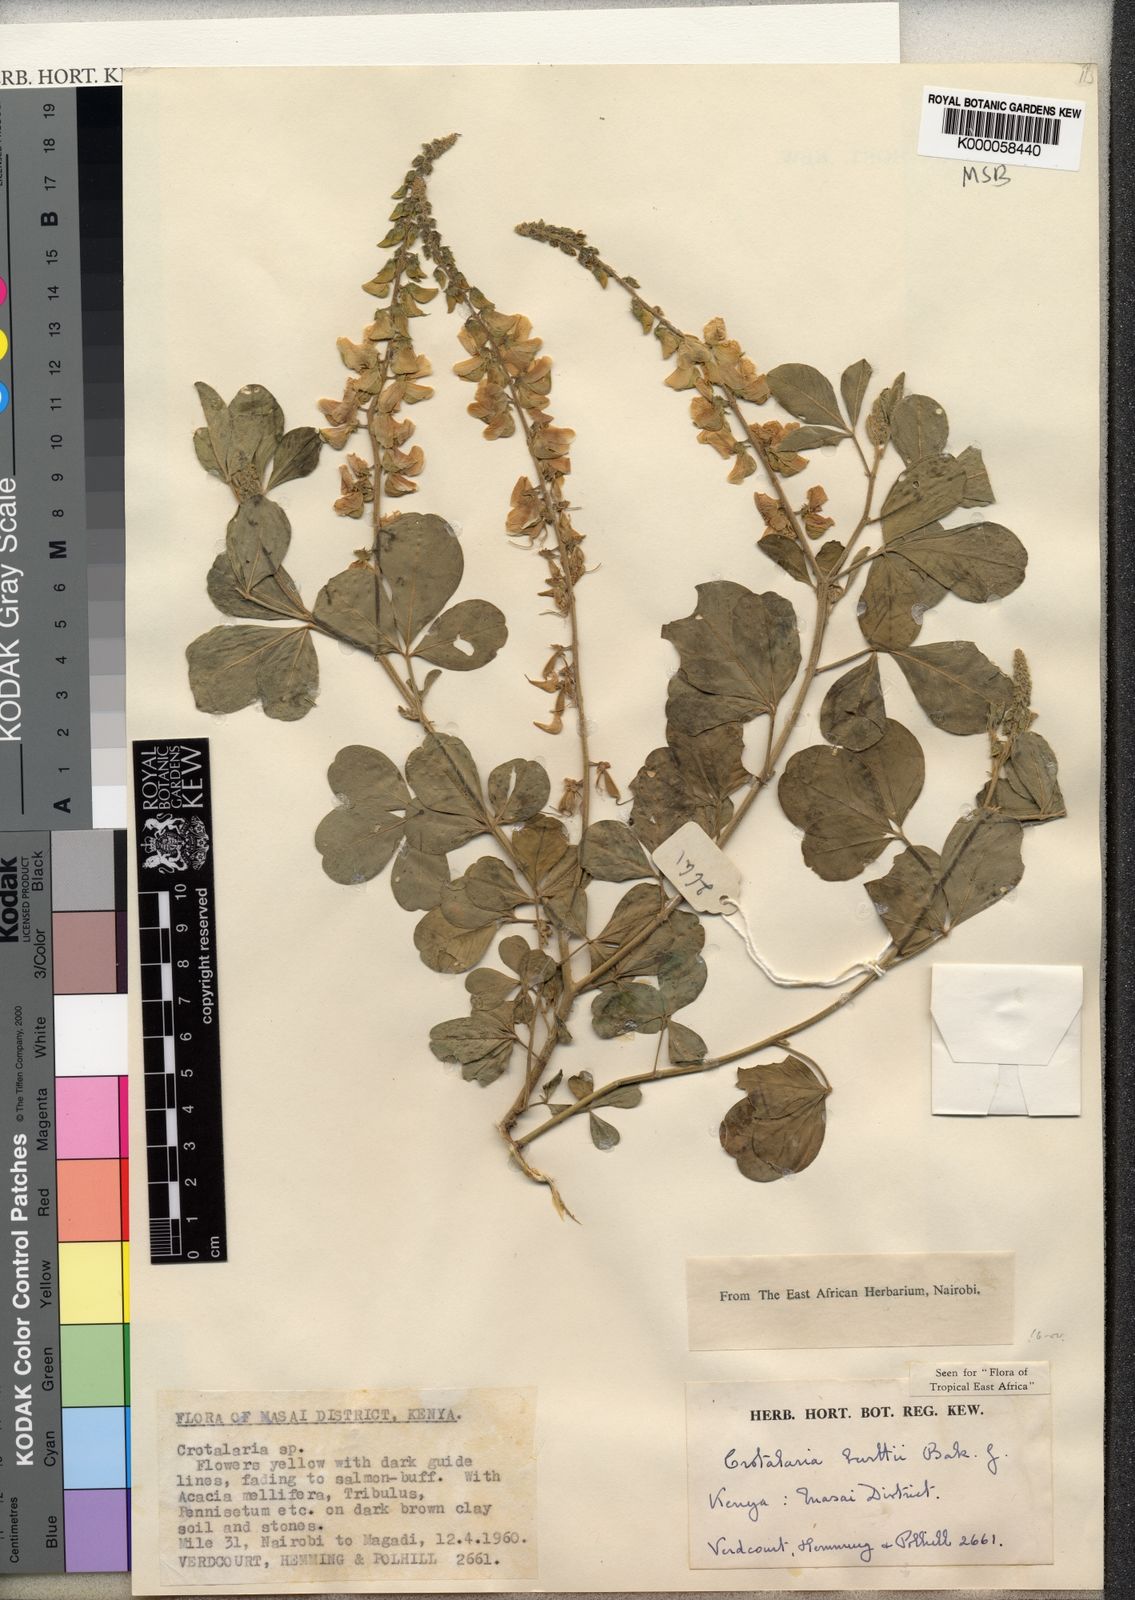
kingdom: Plantae
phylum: Tracheophyta
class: Magnoliopsida
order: Fabales
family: Fabaceae
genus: Crotalaria
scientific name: Crotalaria burttii
